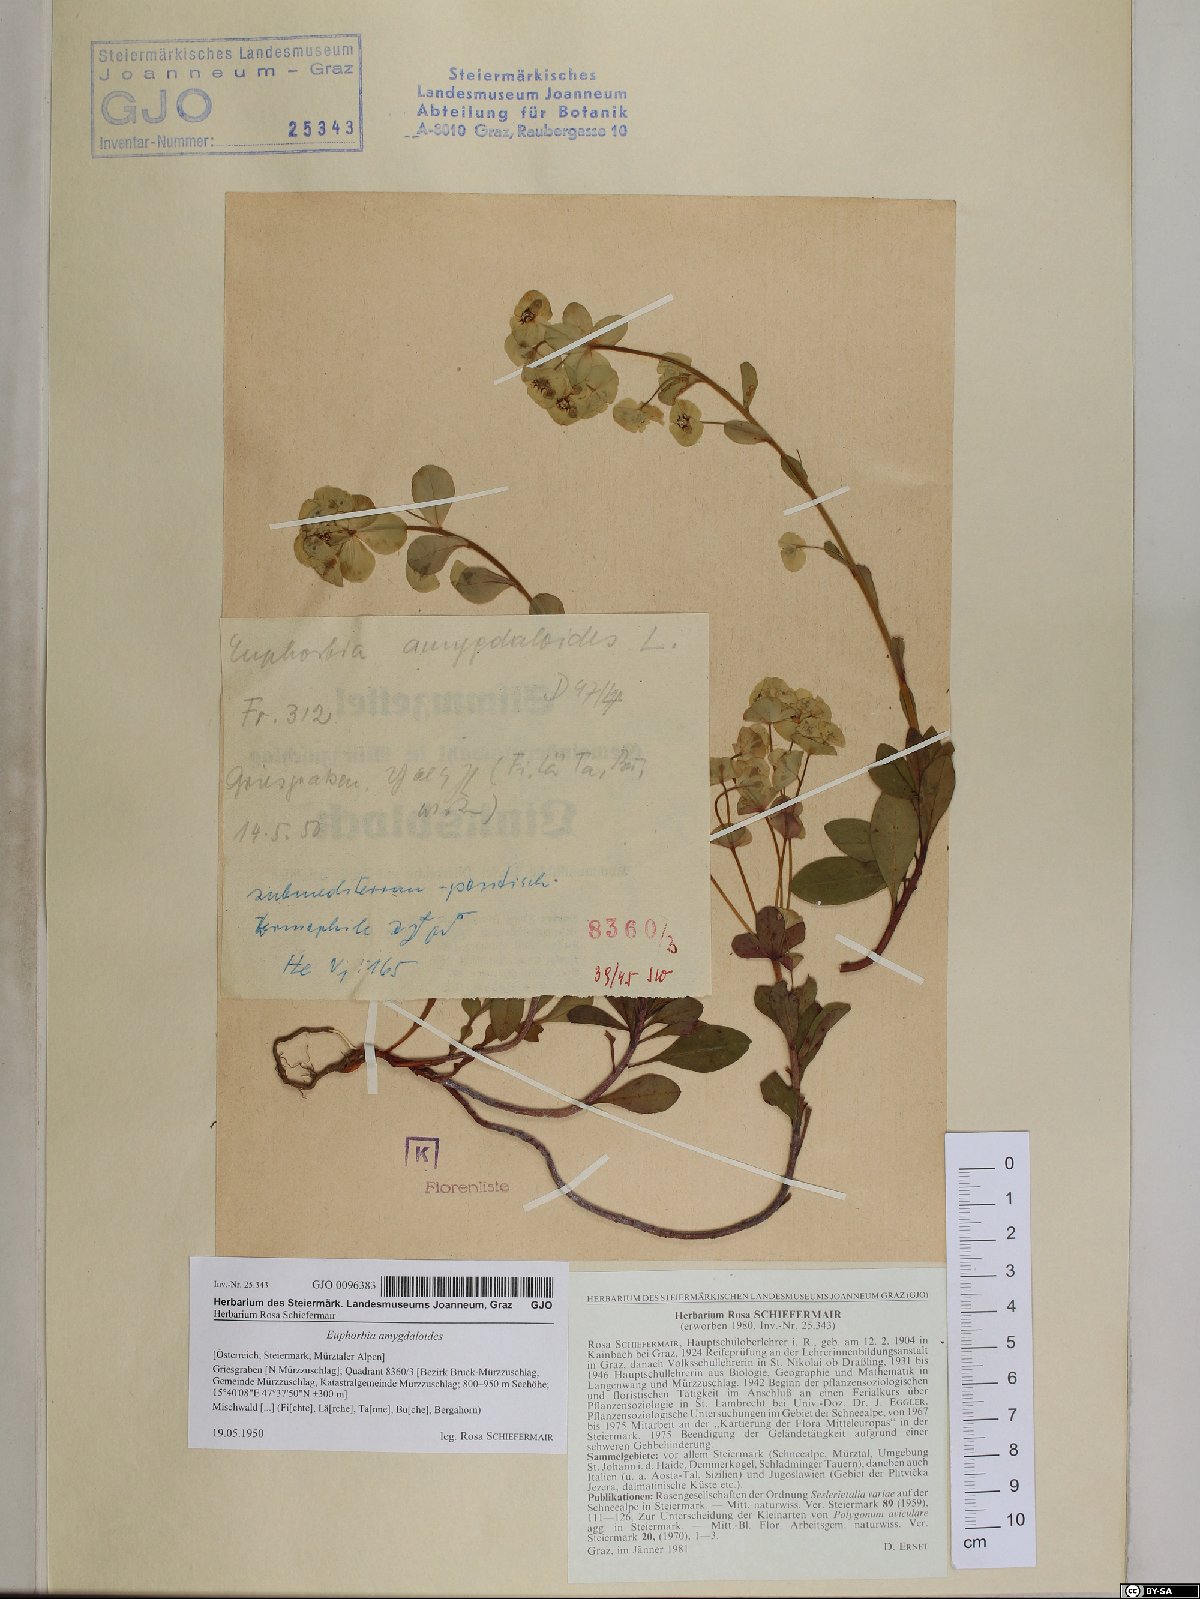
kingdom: Plantae
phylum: Tracheophyta
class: Magnoliopsida
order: Malpighiales
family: Euphorbiaceae
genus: Euphorbia
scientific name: Euphorbia amygdaloides
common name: Wood spurge
